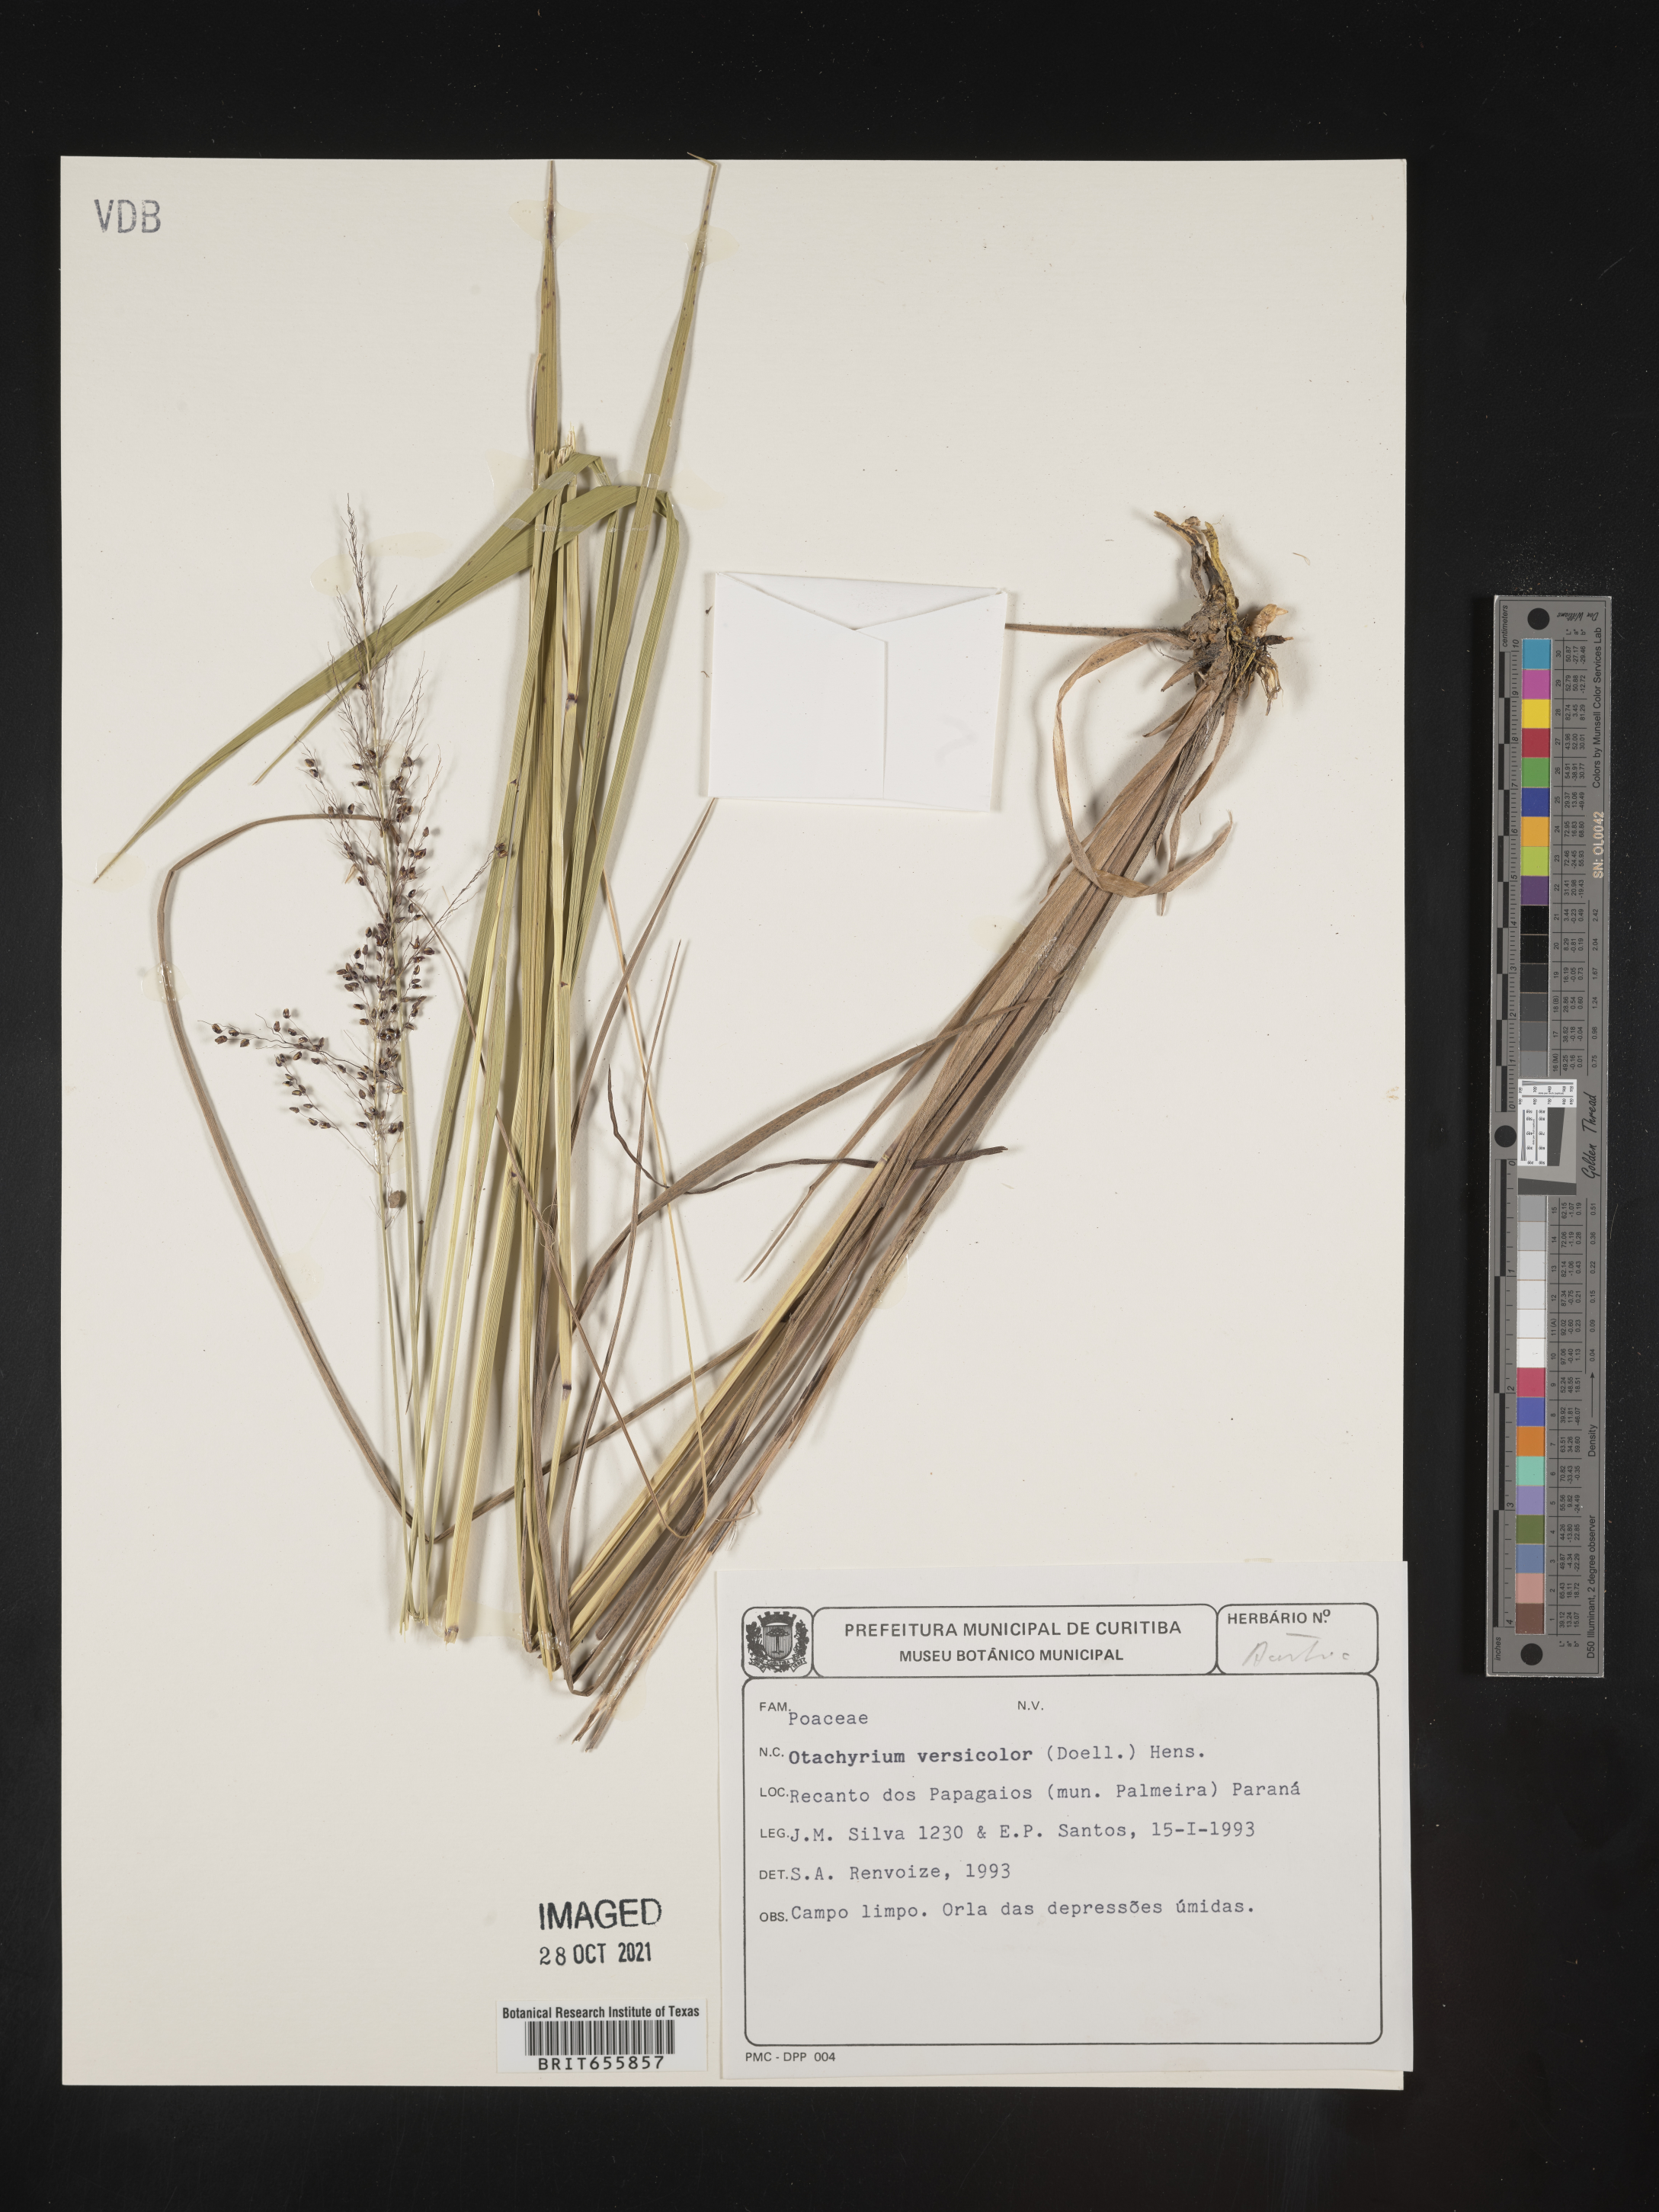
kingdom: Plantae
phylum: Tracheophyta
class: Liliopsida
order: Poales
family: Poaceae
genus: Otachyrium
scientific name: Otachyrium
